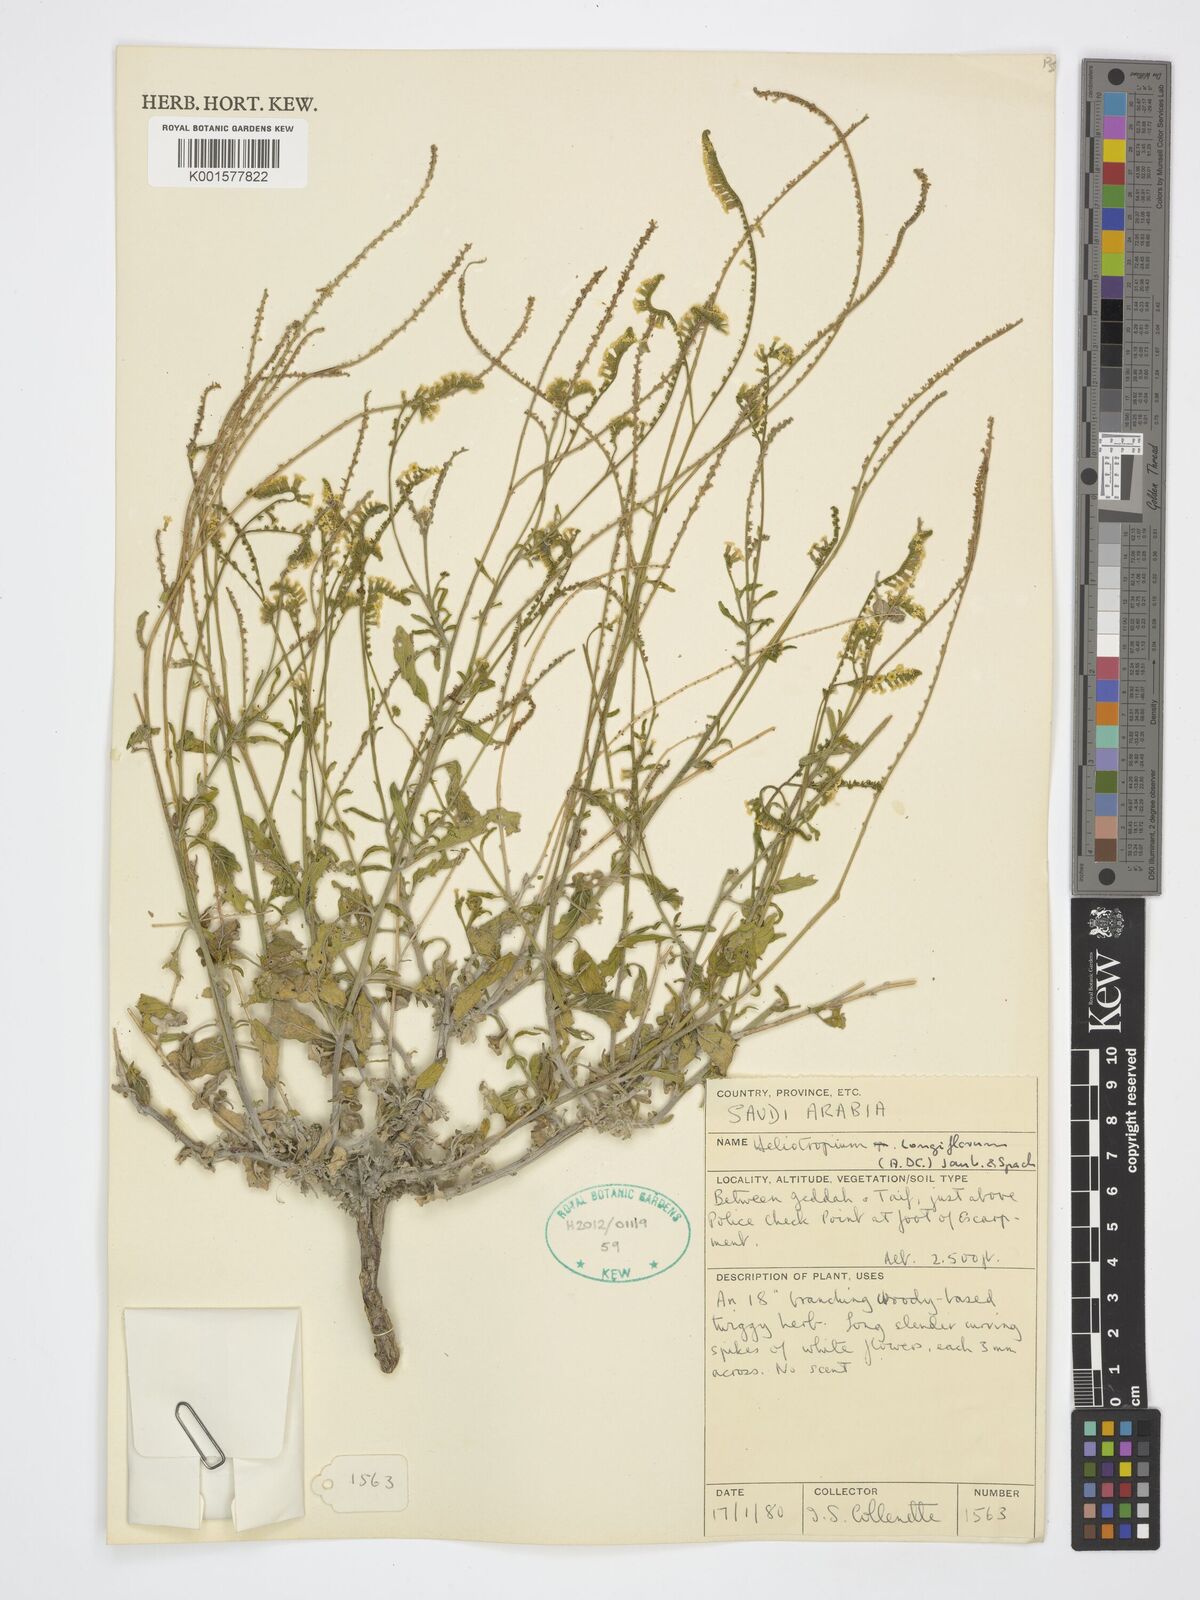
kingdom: Plantae
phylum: Tracheophyta
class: Magnoliopsida
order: Boraginales
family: Heliotropiaceae
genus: Heliotropium
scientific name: Heliotropium longiflorum
